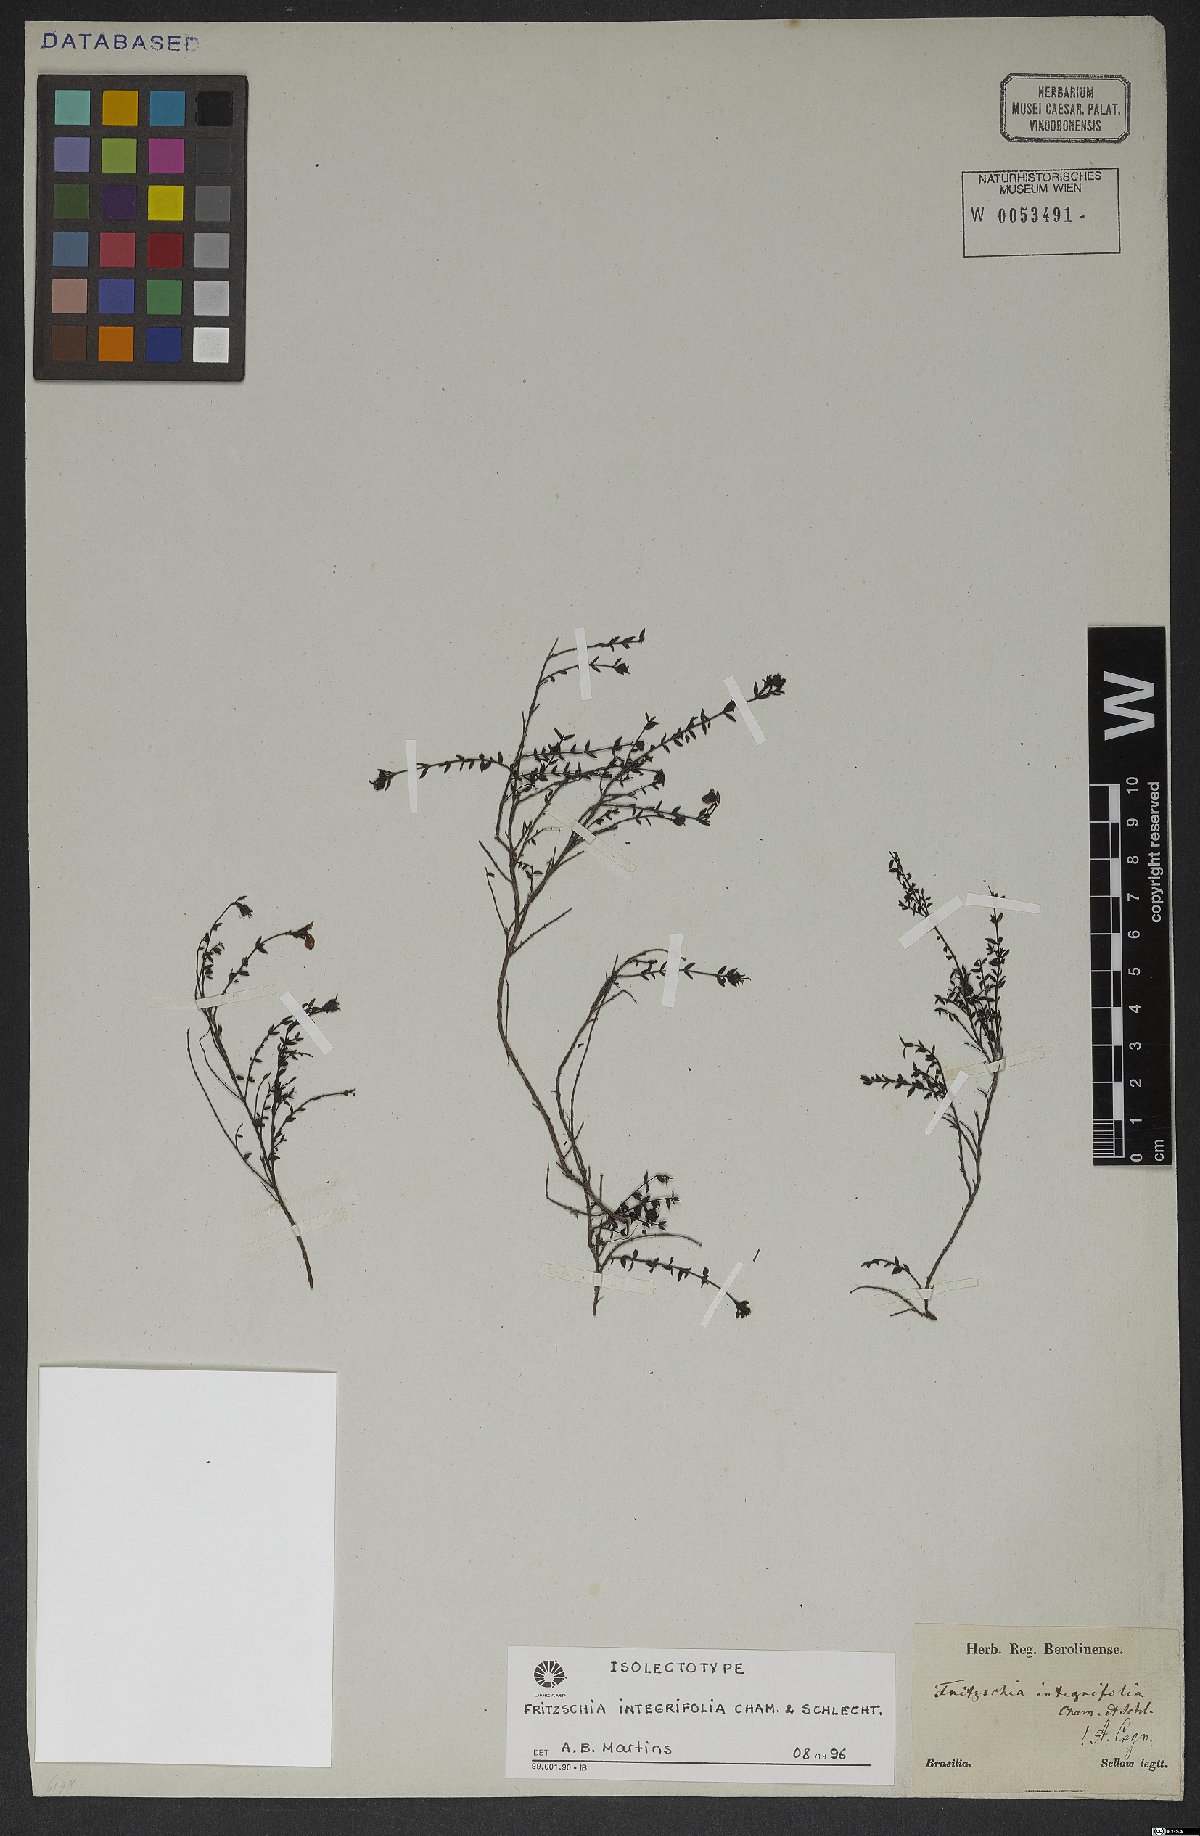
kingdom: Plantae
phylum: Tracheophyta
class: Magnoliopsida
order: Myrtales
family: Melastomataceae
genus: Fritzschia
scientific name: Fritzschia integrifolia
